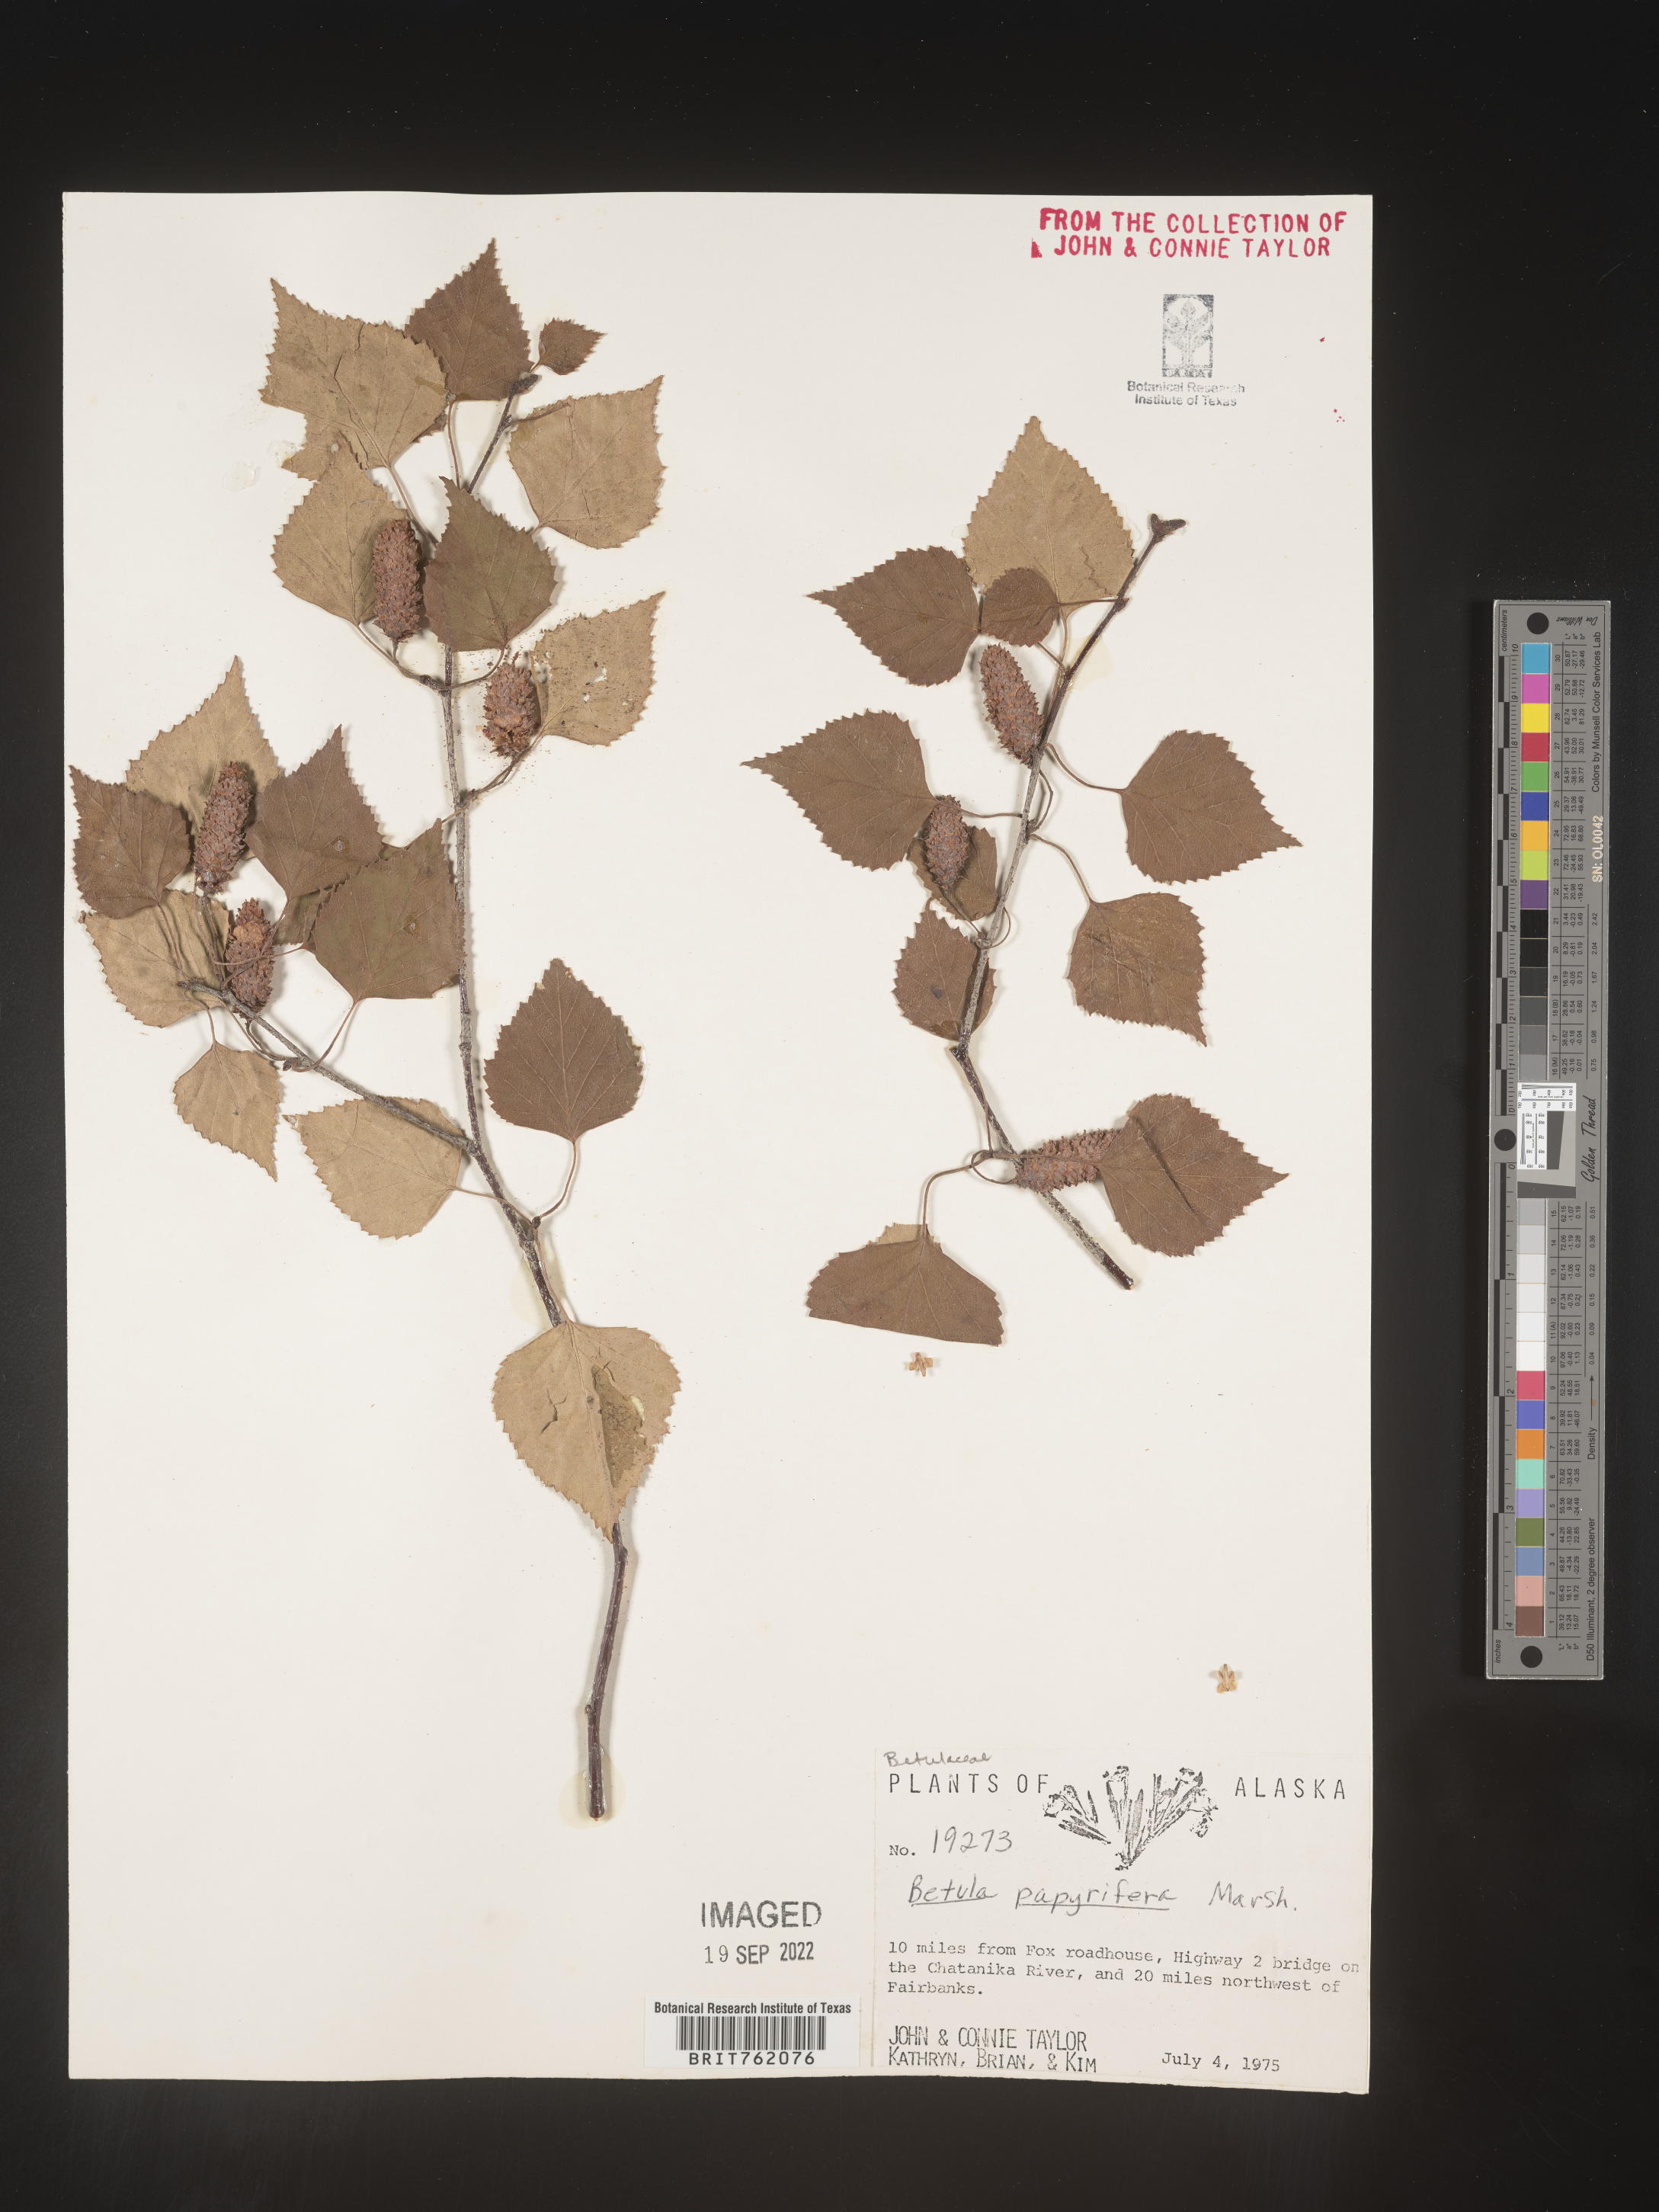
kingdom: Plantae
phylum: Tracheophyta
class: Magnoliopsida
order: Fagales
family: Betulaceae
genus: Betula
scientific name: Betula papyrifera
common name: Paper birch
